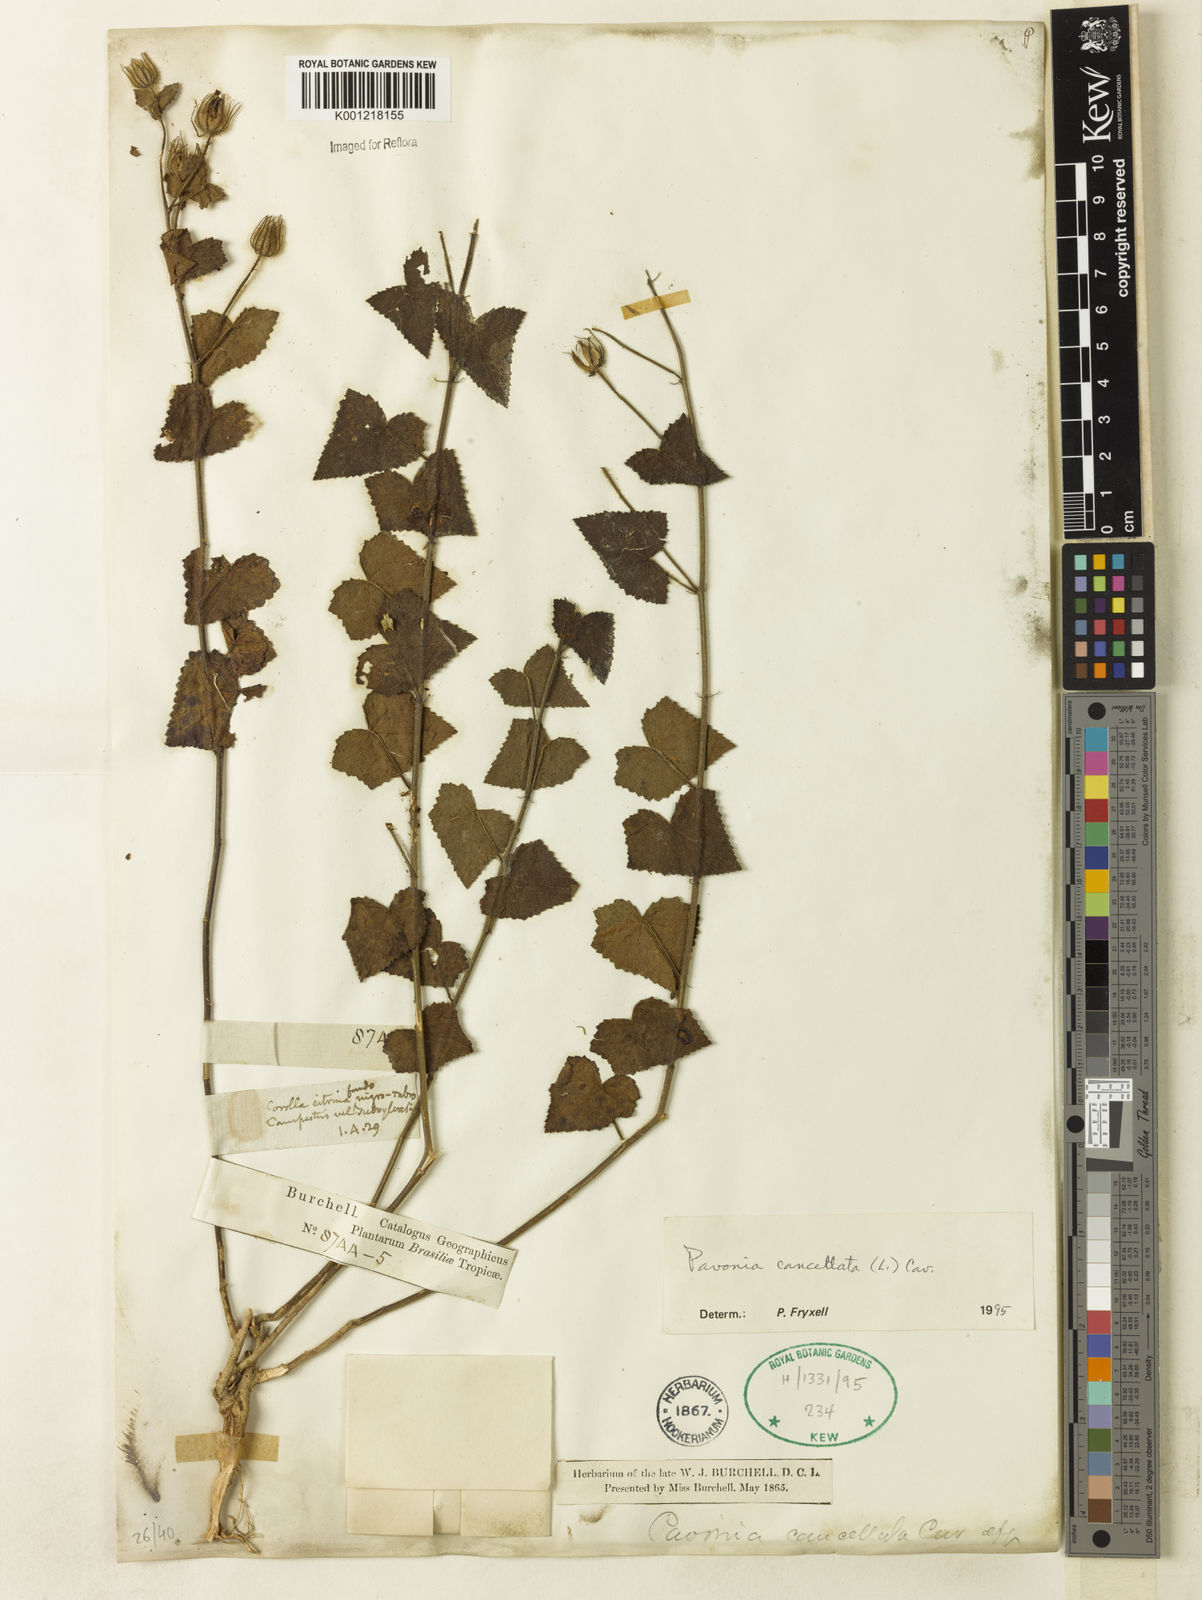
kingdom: Plantae
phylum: Tracheophyta
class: Magnoliopsida
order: Malvales
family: Malvaceae
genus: Pavonia
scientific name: Pavonia cancellata
